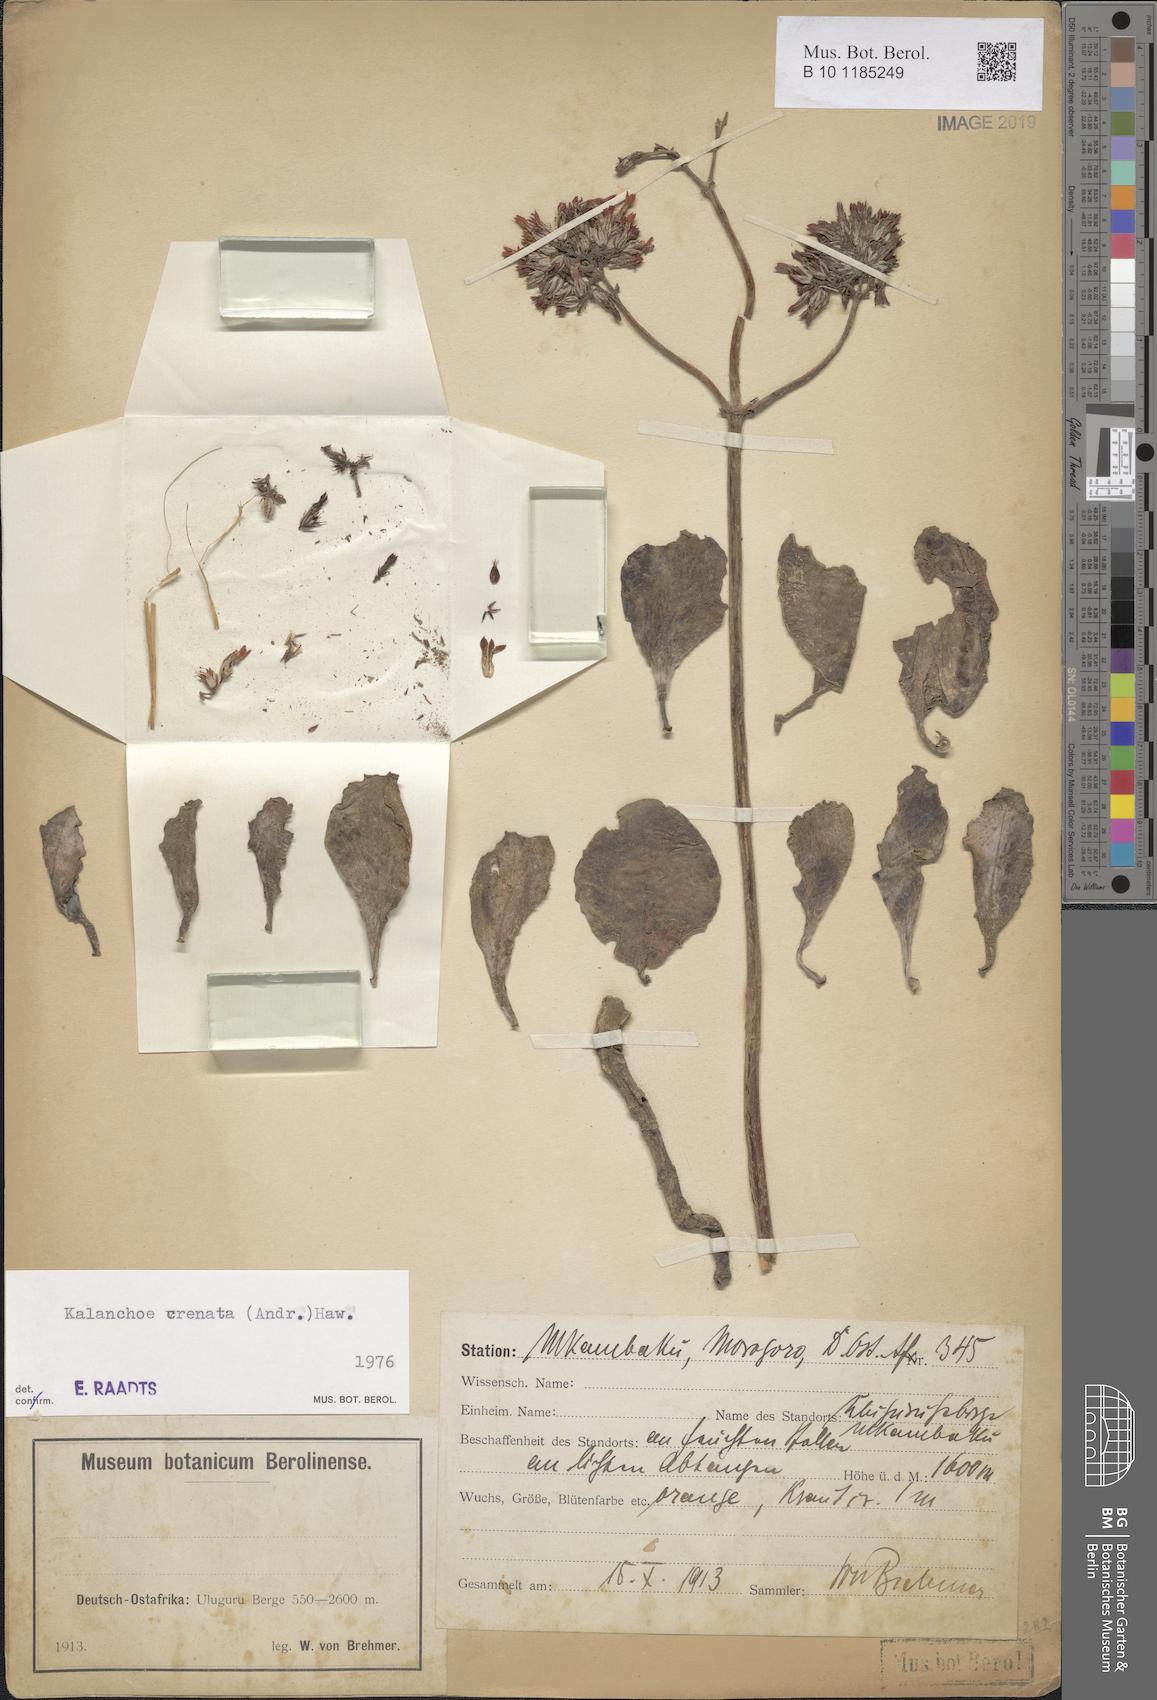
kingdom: Plantae
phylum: Tracheophyta
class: Magnoliopsida
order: Saxifragales
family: Crassulaceae
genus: Kalanchoe
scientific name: Kalanchoe crenata
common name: Neverdie
